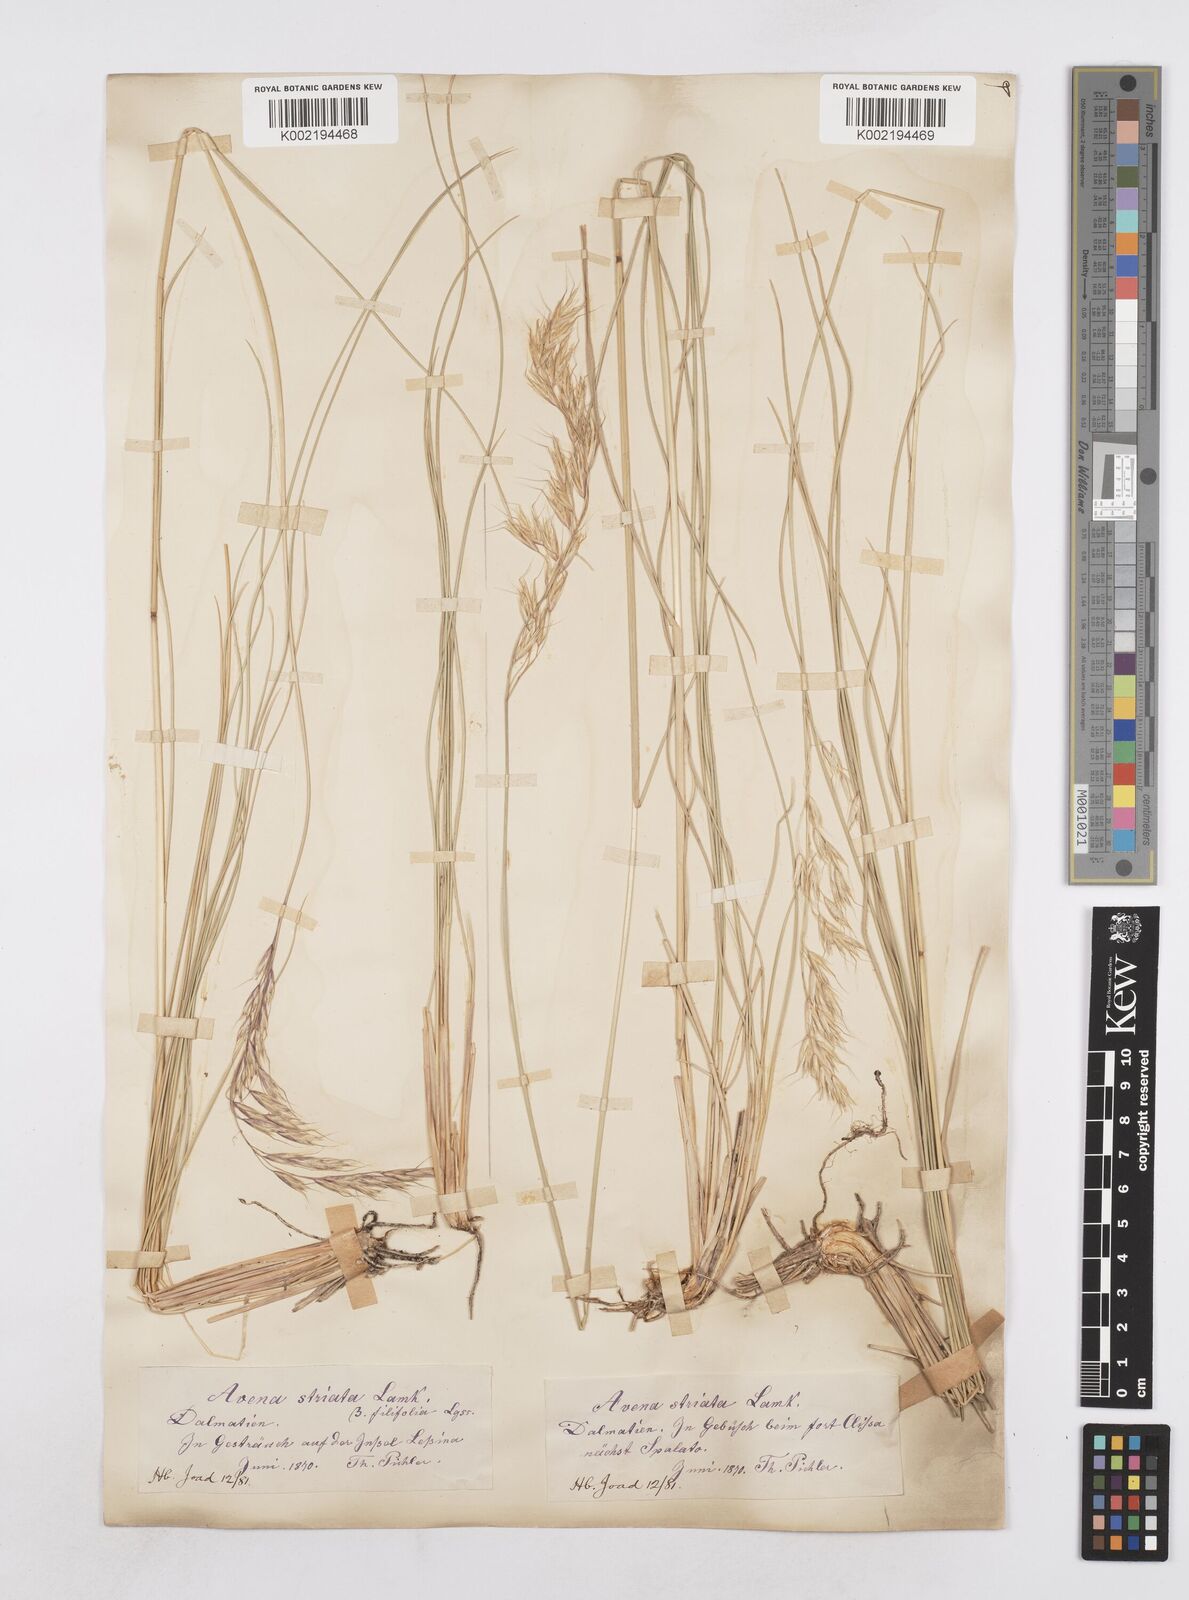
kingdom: Plantae
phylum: Tracheophyta
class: Liliopsida
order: Poales
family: Poaceae
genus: Helictotrichon
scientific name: Helictotrichon convolutum
